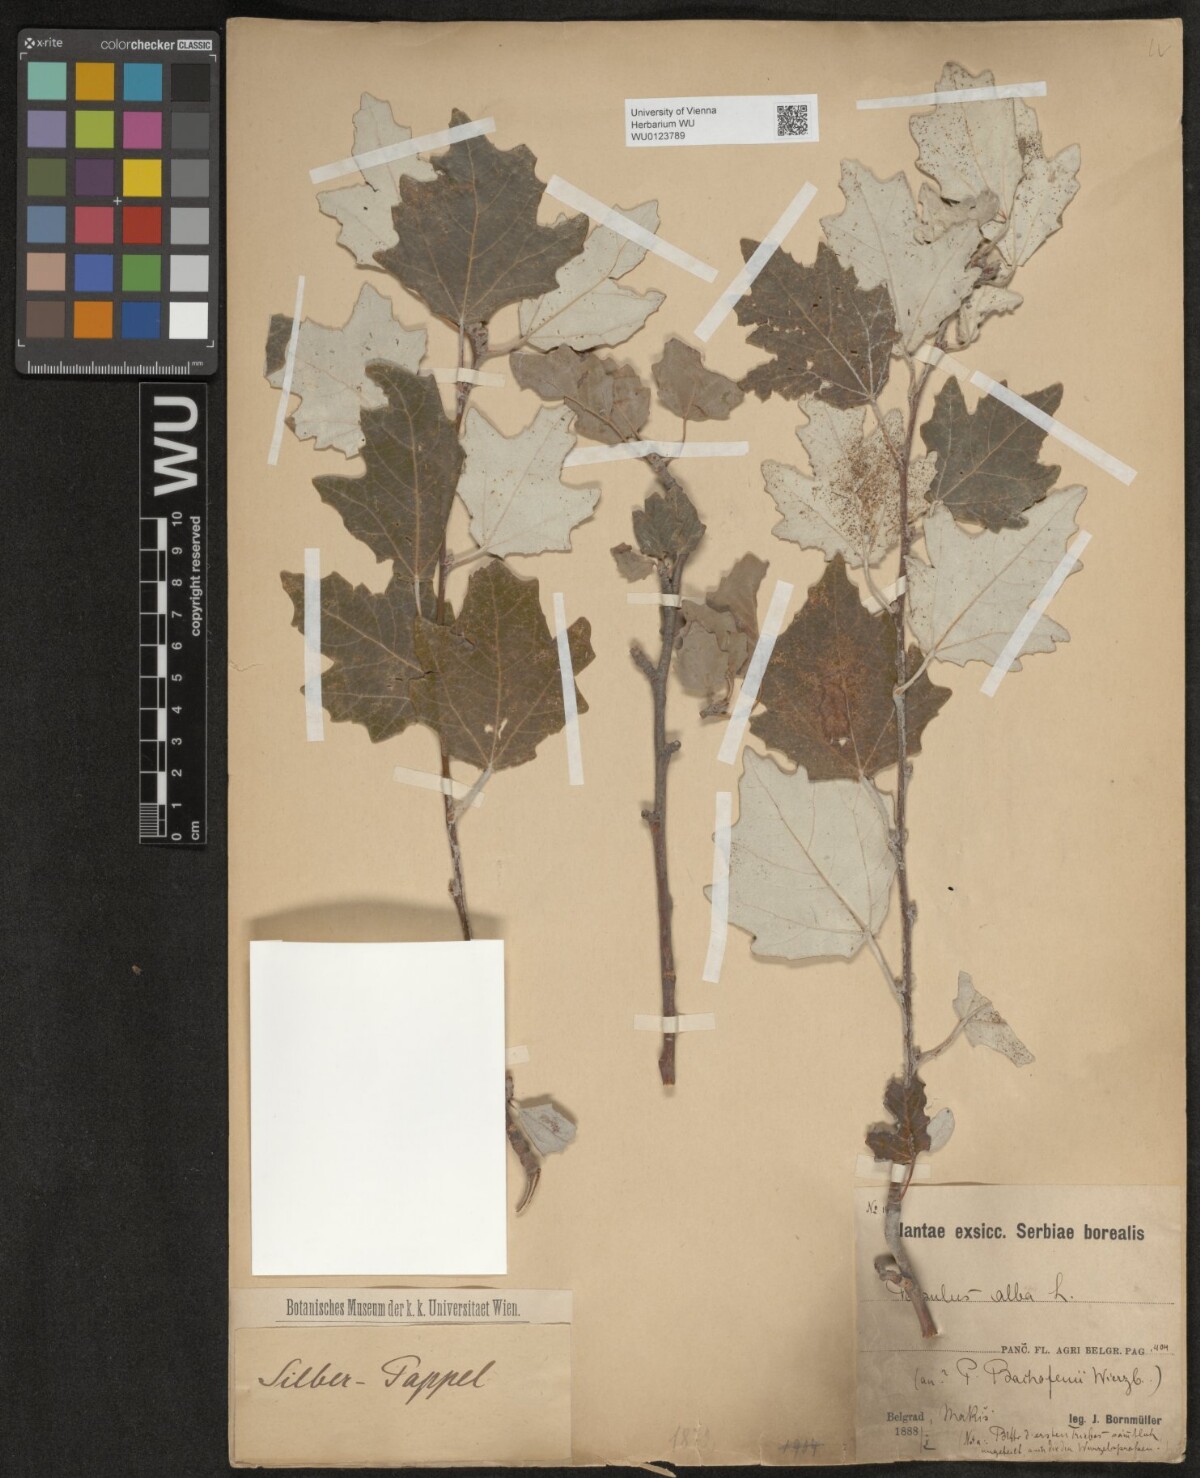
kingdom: Plantae
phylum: Tracheophyta
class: Magnoliopsida
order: Malpighiales
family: Salicaceae
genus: Populus
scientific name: Populus alba
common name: White poplar
